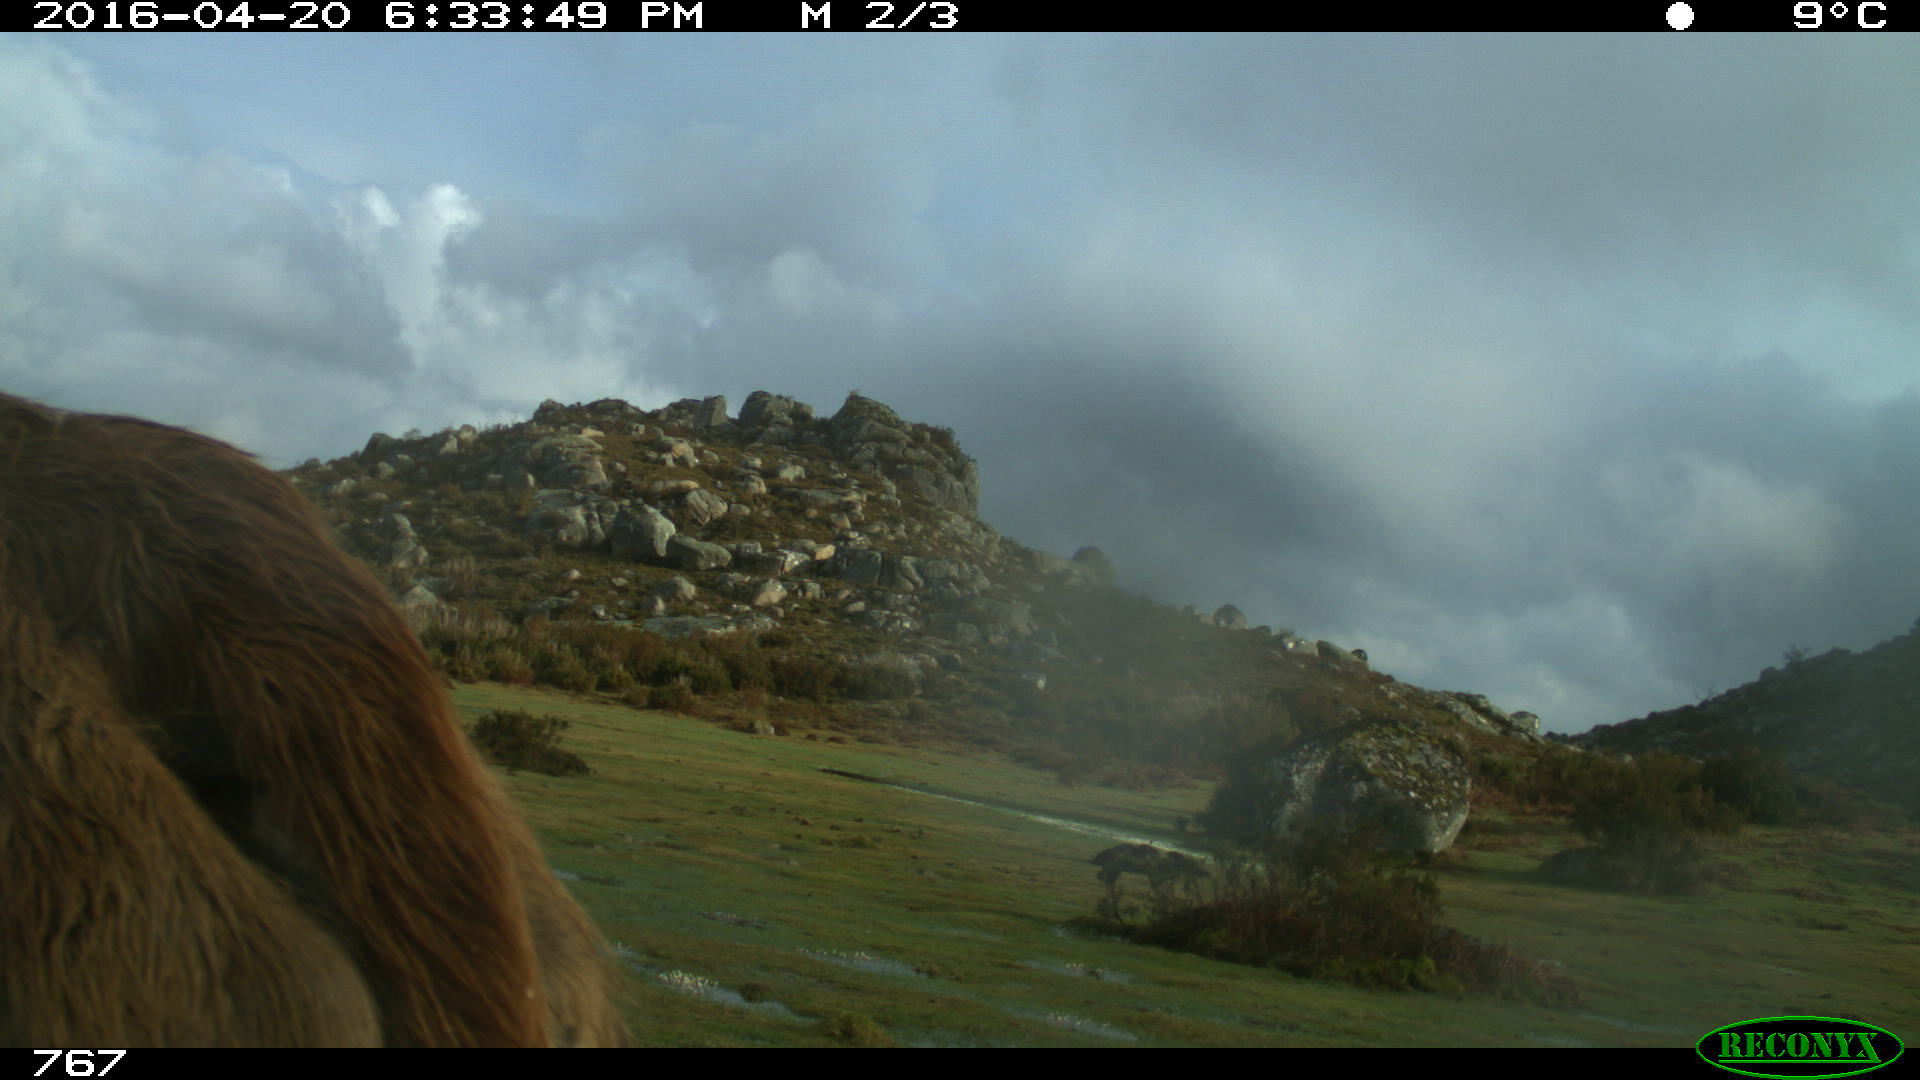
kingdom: Animalia
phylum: Chordata
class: Mammalia
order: Artiodactyla
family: Bovidae
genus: Bos
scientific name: Bos taurus
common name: Domesticated cattle
